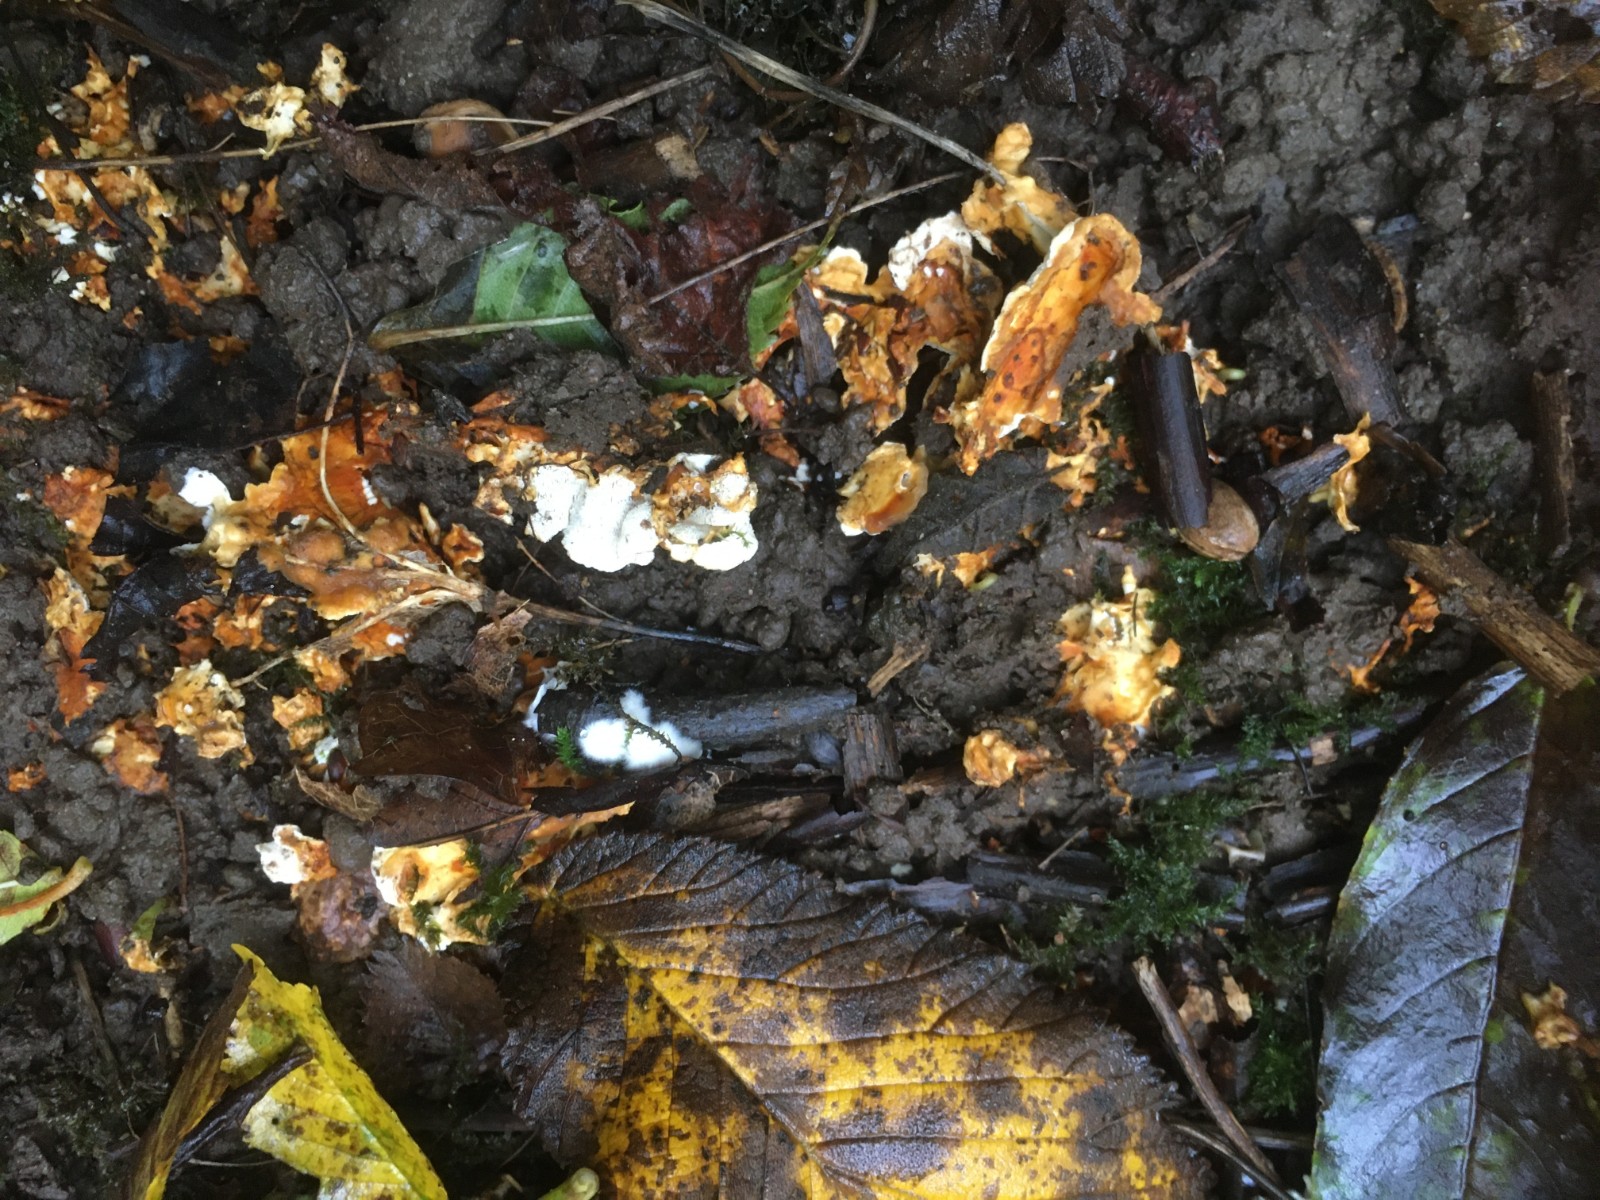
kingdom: Fungi
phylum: Basidiomycota
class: Agaricomycetes
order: Polyporales
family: Steccherinaceae
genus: Loweomyces
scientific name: Loweomyces wynneae
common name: krybende blødporesvamp
